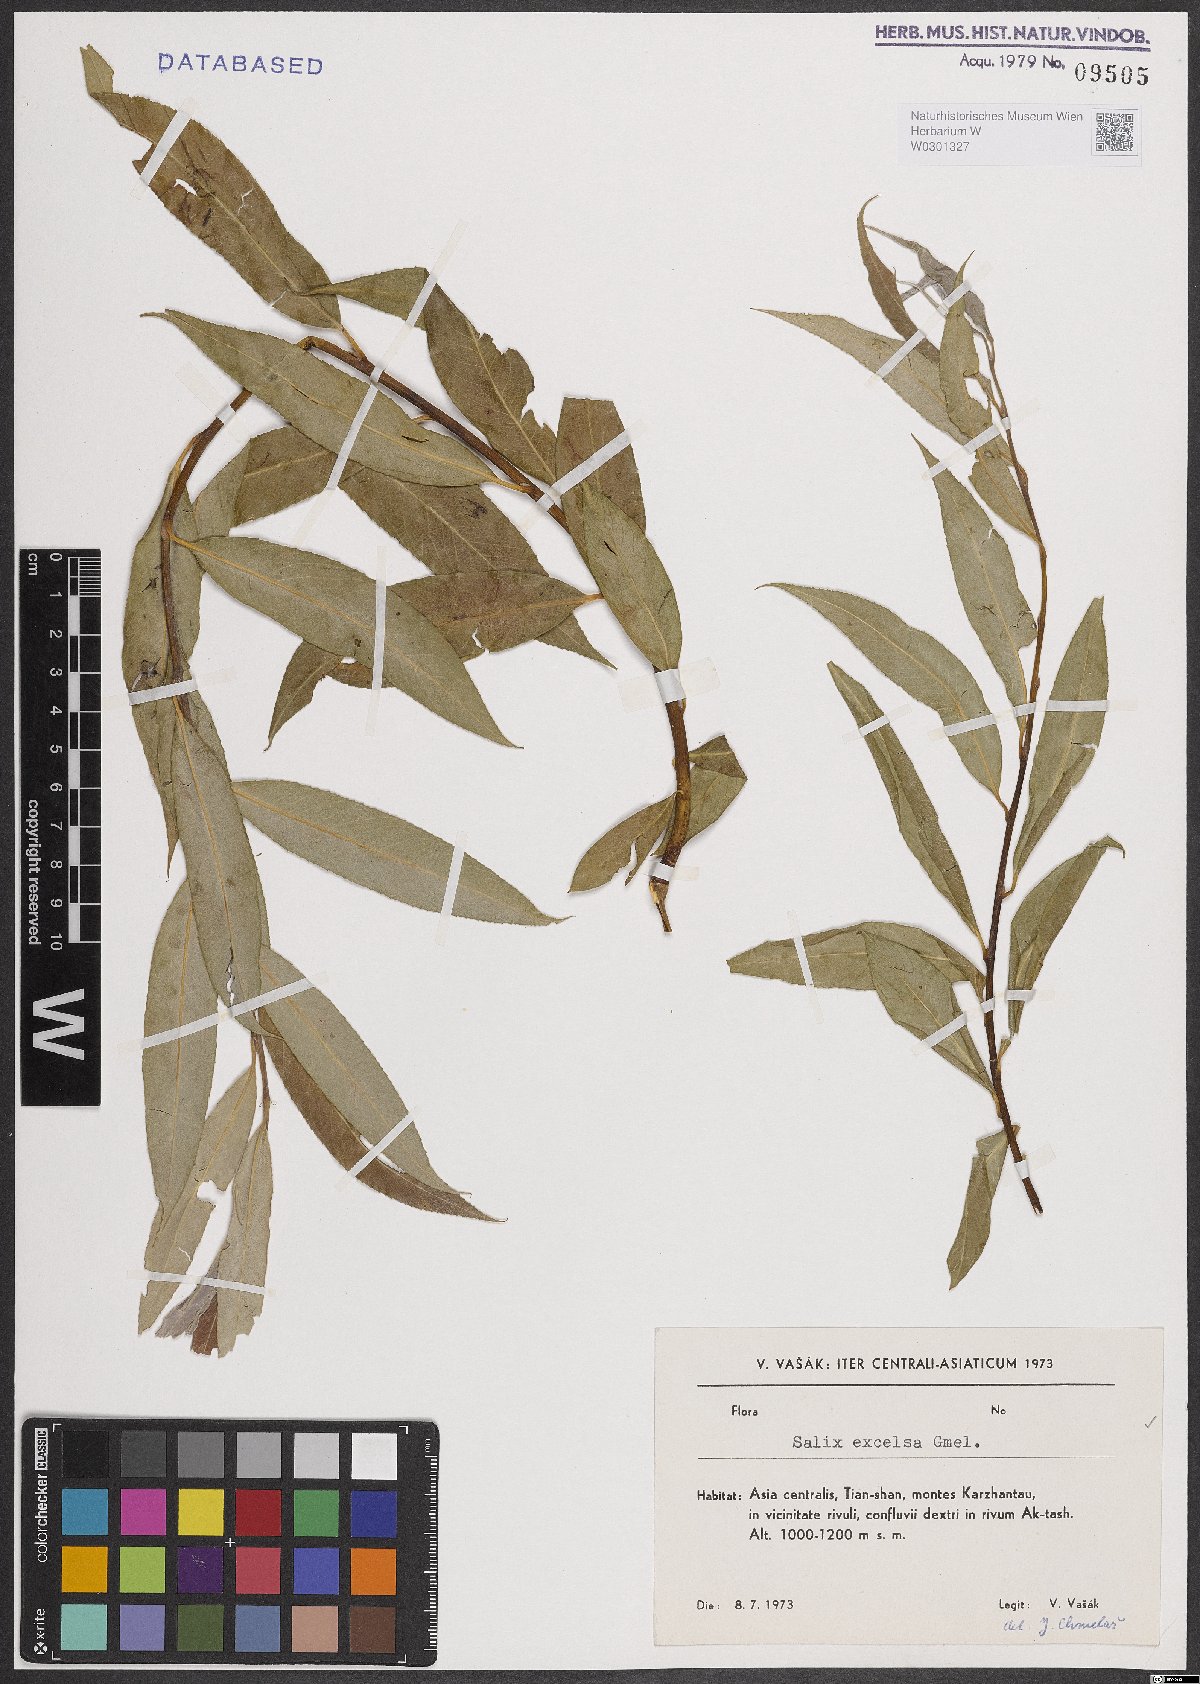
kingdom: Plantae
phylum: Tracheophyta
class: Magnoliopsida
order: Malpighiales
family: Salicaceae
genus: Salix
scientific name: Salix excelsa
